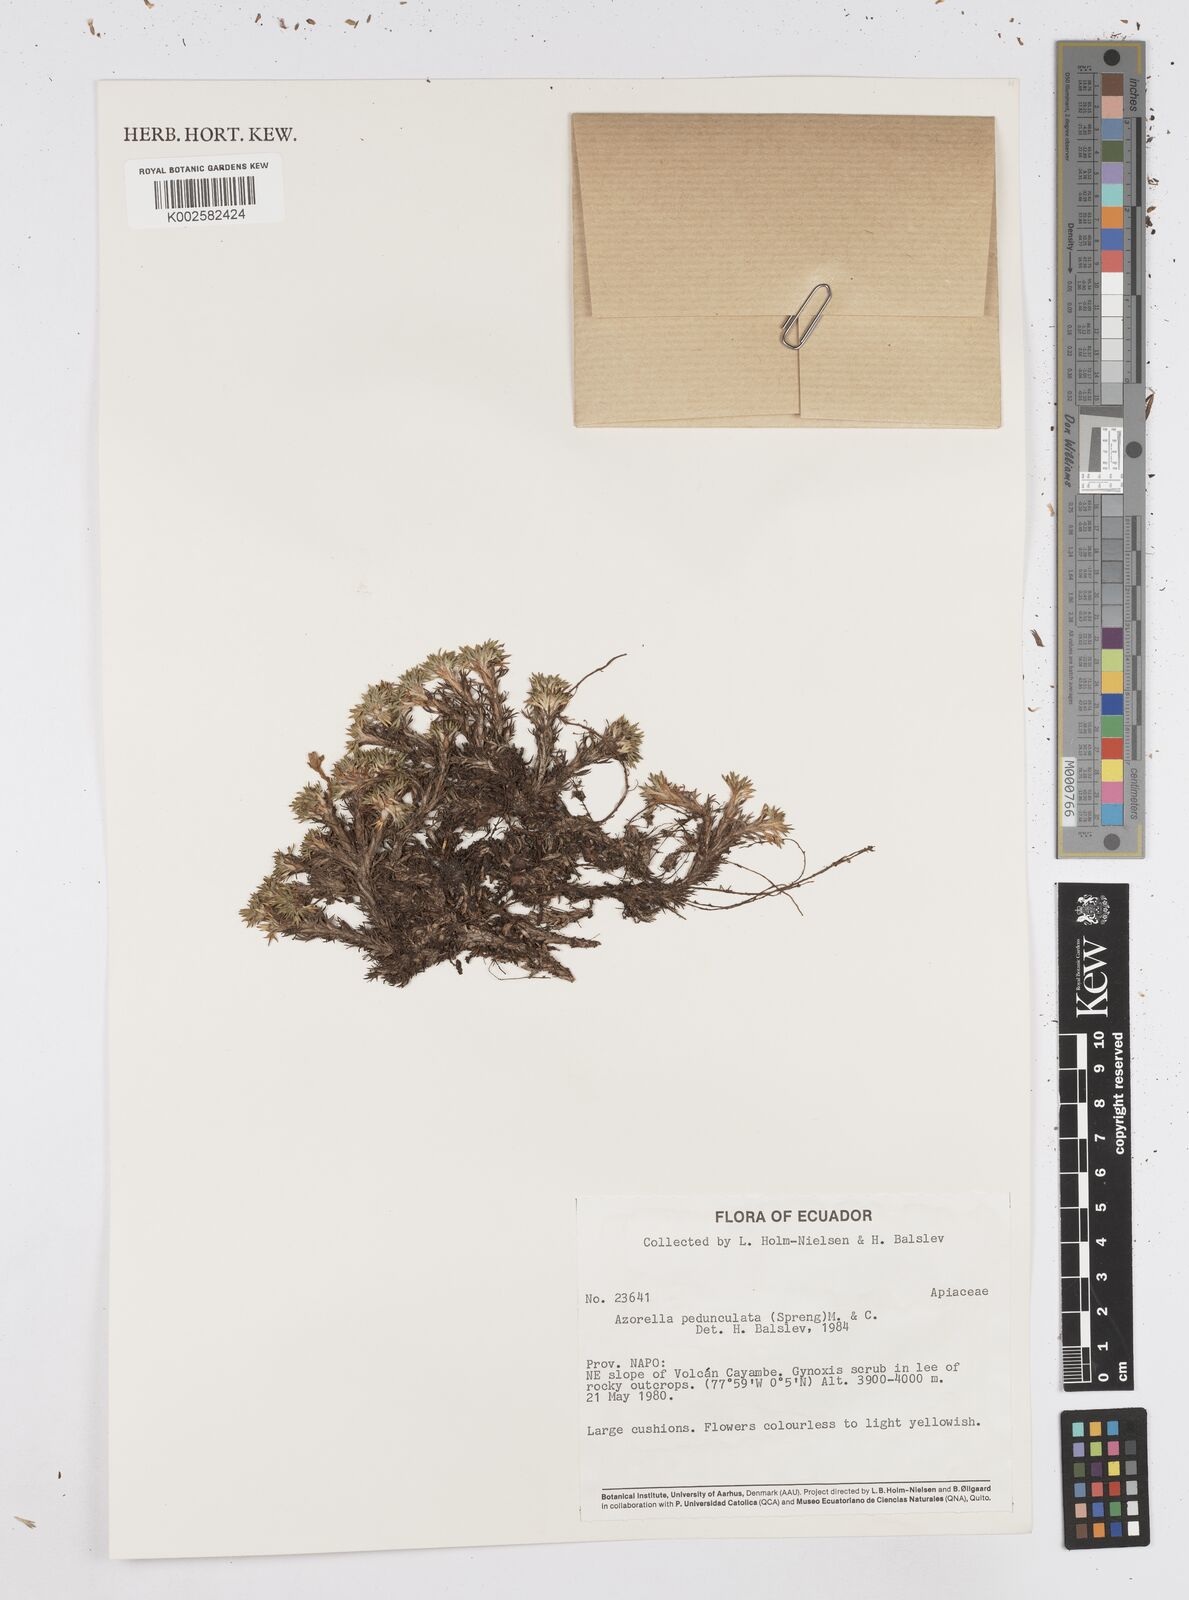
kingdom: Plantae
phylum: Tracheophyta
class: Magnoliopsida
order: Apiales
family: Apiaceae
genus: Azorella
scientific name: Azorella pedunculata
